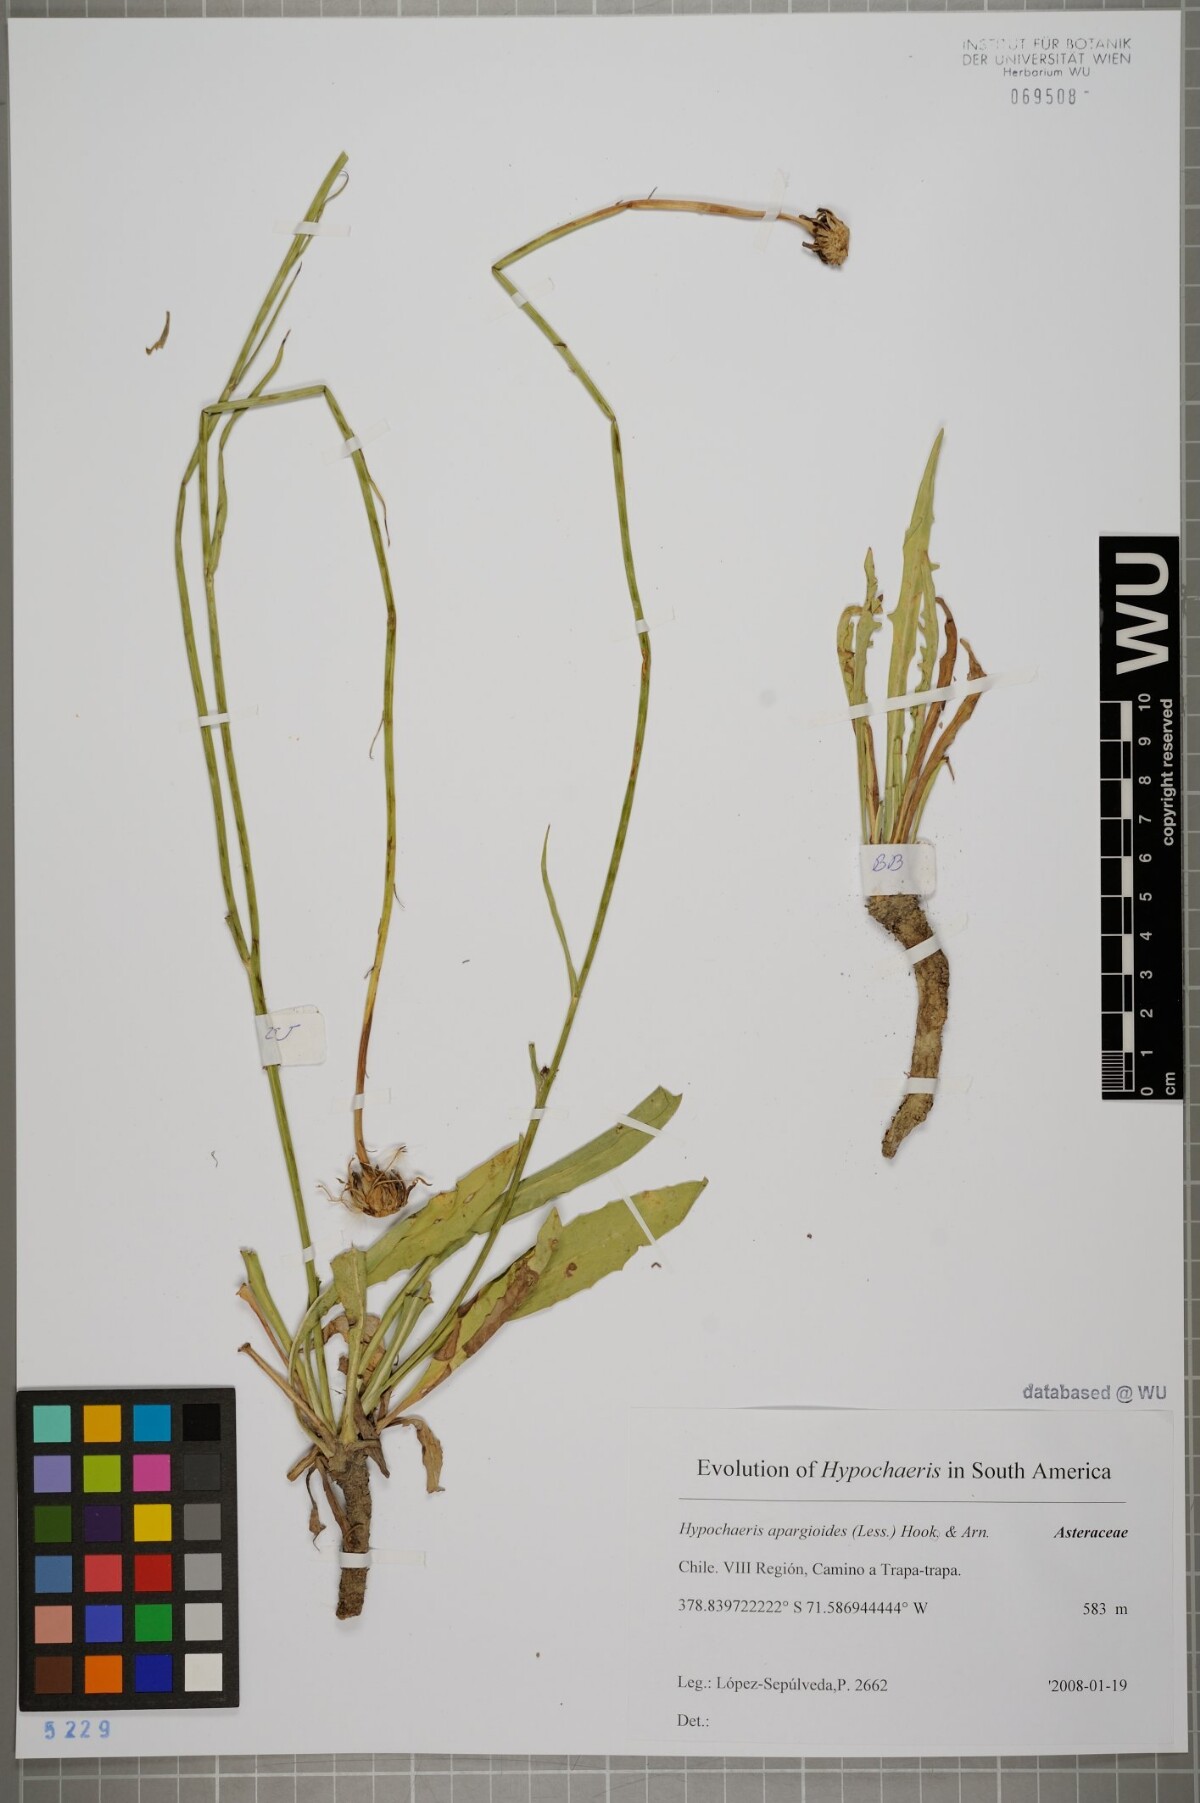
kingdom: Plantae
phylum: Tracheophyta
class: Magnoliopsida
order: Asterales
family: Asteraceae
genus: Hypochaeris
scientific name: Hypochaeris apargioides
